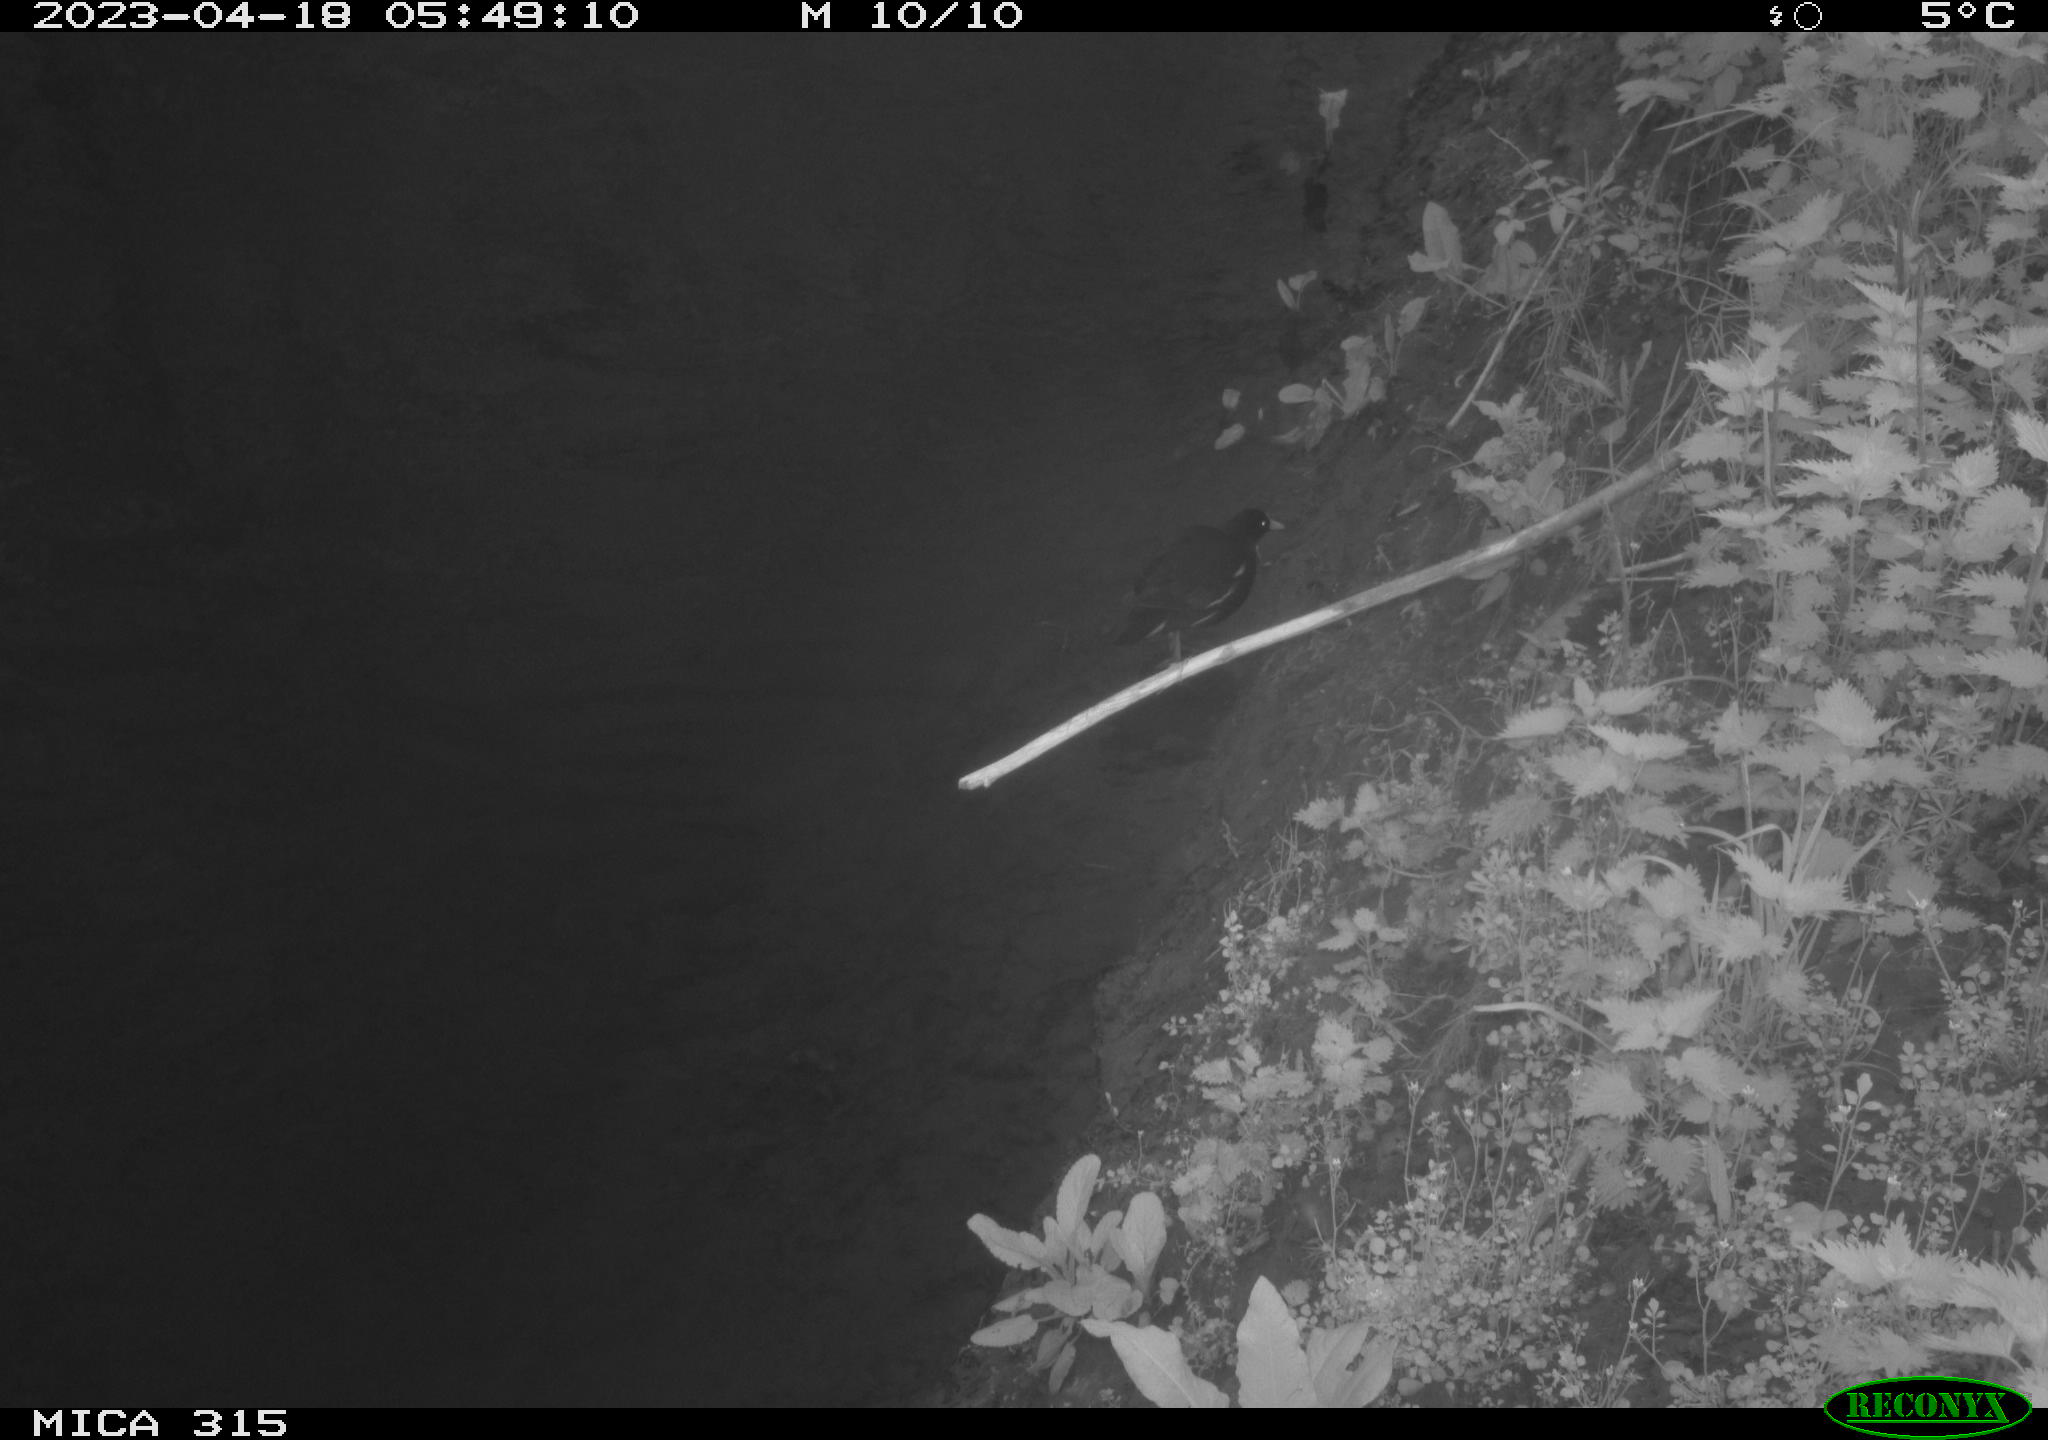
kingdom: Animalia
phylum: Chordata
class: Aves
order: Gruiformes
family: Rallidae
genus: Gallinula
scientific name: Gallinula chloropus
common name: Common moorhen
